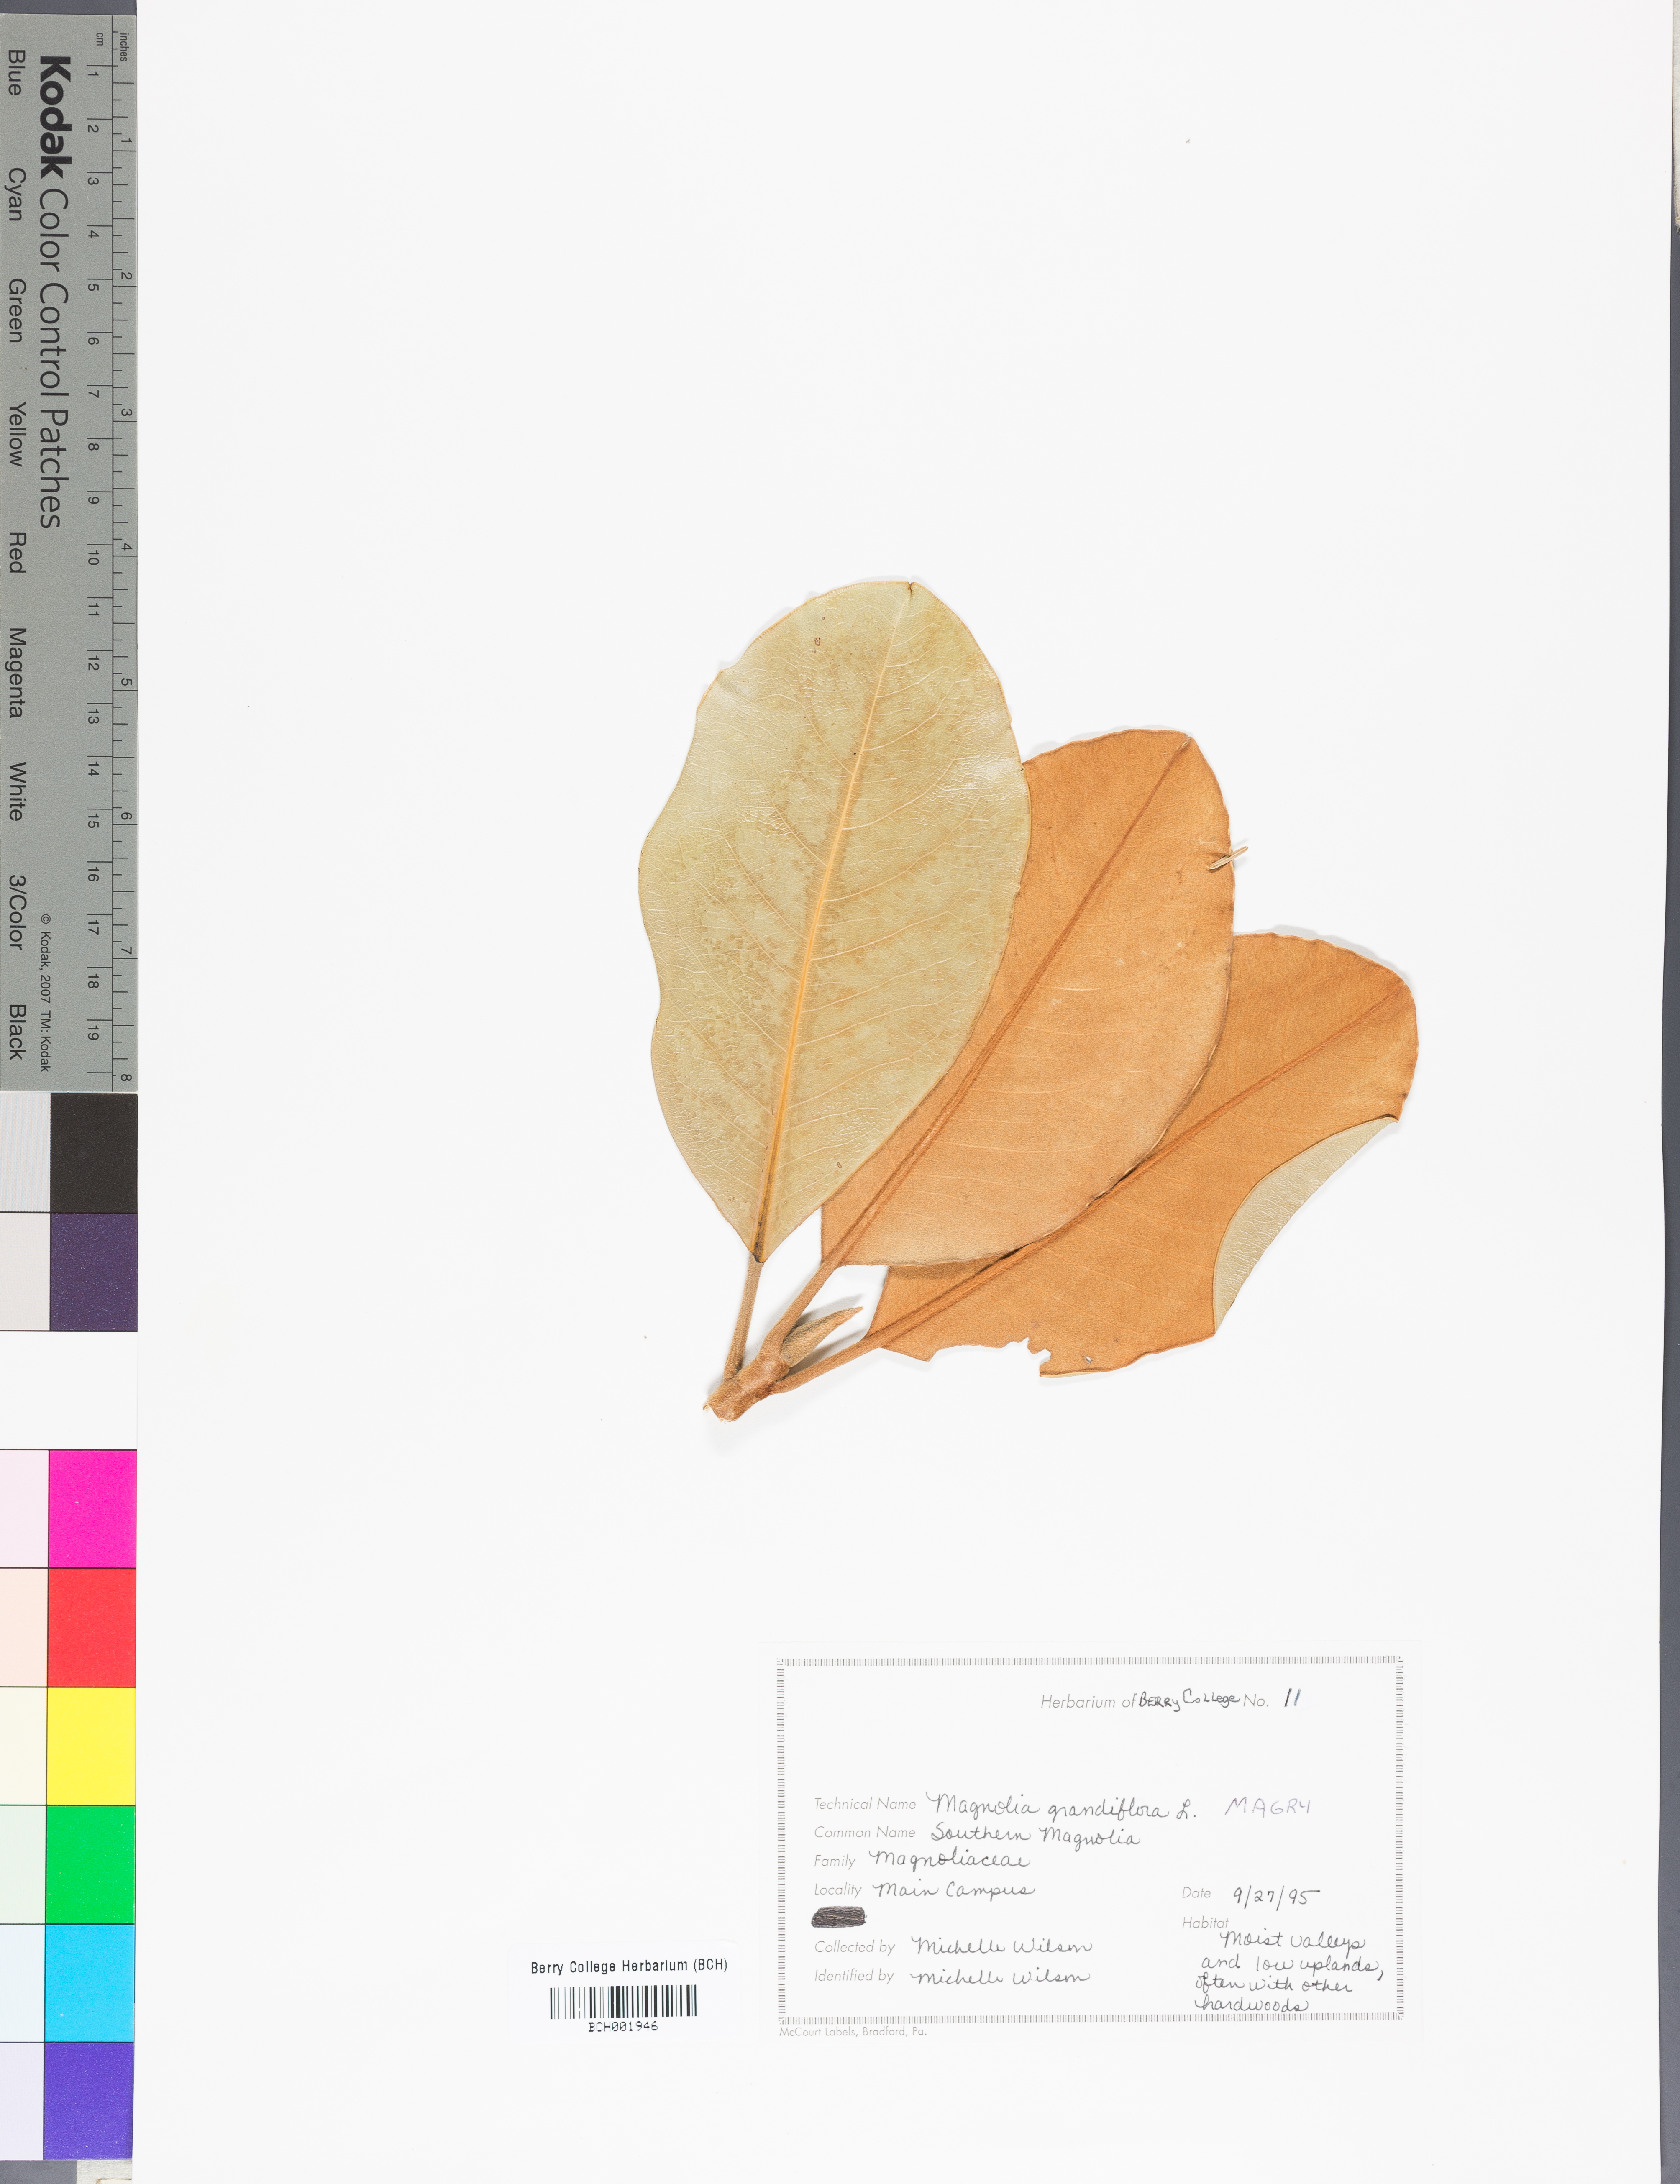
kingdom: Plantae
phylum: Tracheophyta
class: Magnoliopsida
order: Magnoliales
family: Magnoliaceae
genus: Magnolia
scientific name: Magnolia grandiflora
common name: Southern magnolia
